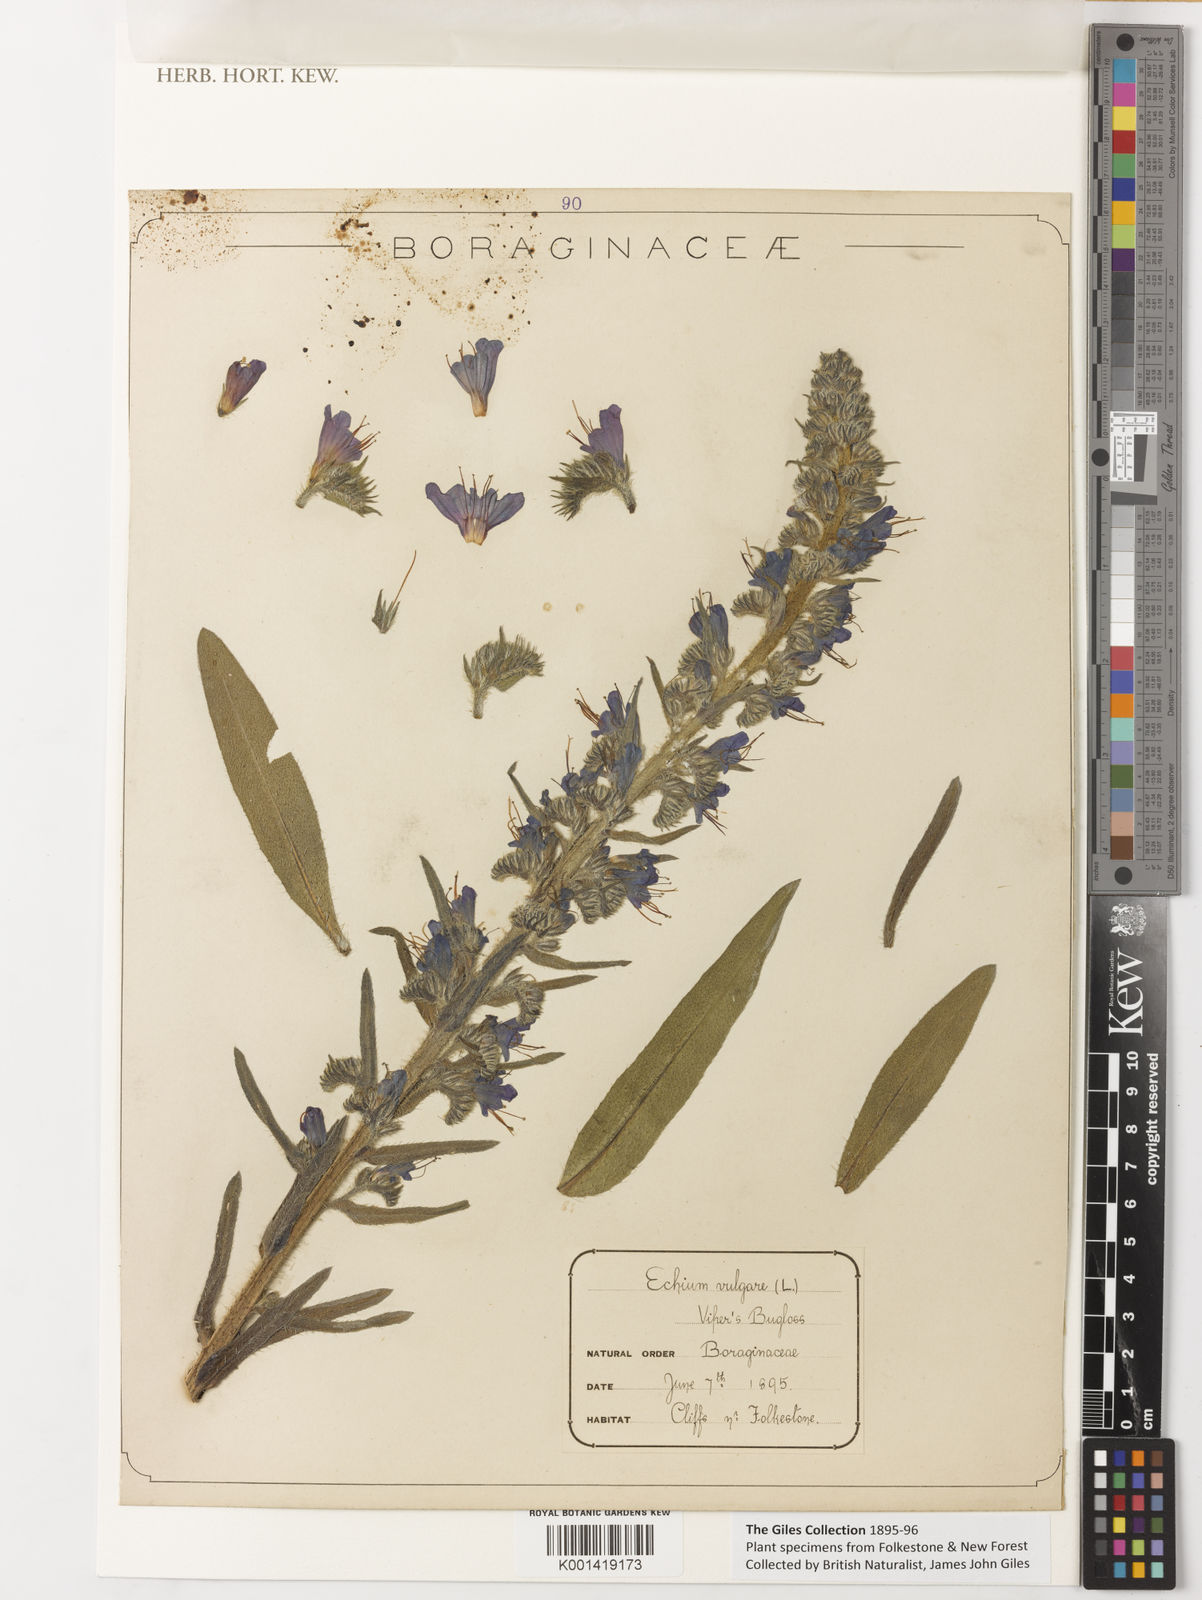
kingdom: Plantae
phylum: Tracheophyta
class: Magnoliopsida
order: Boraginales
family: Boraginaceae
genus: Echium
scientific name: Echium vulgare
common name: Common viper's bugloss
